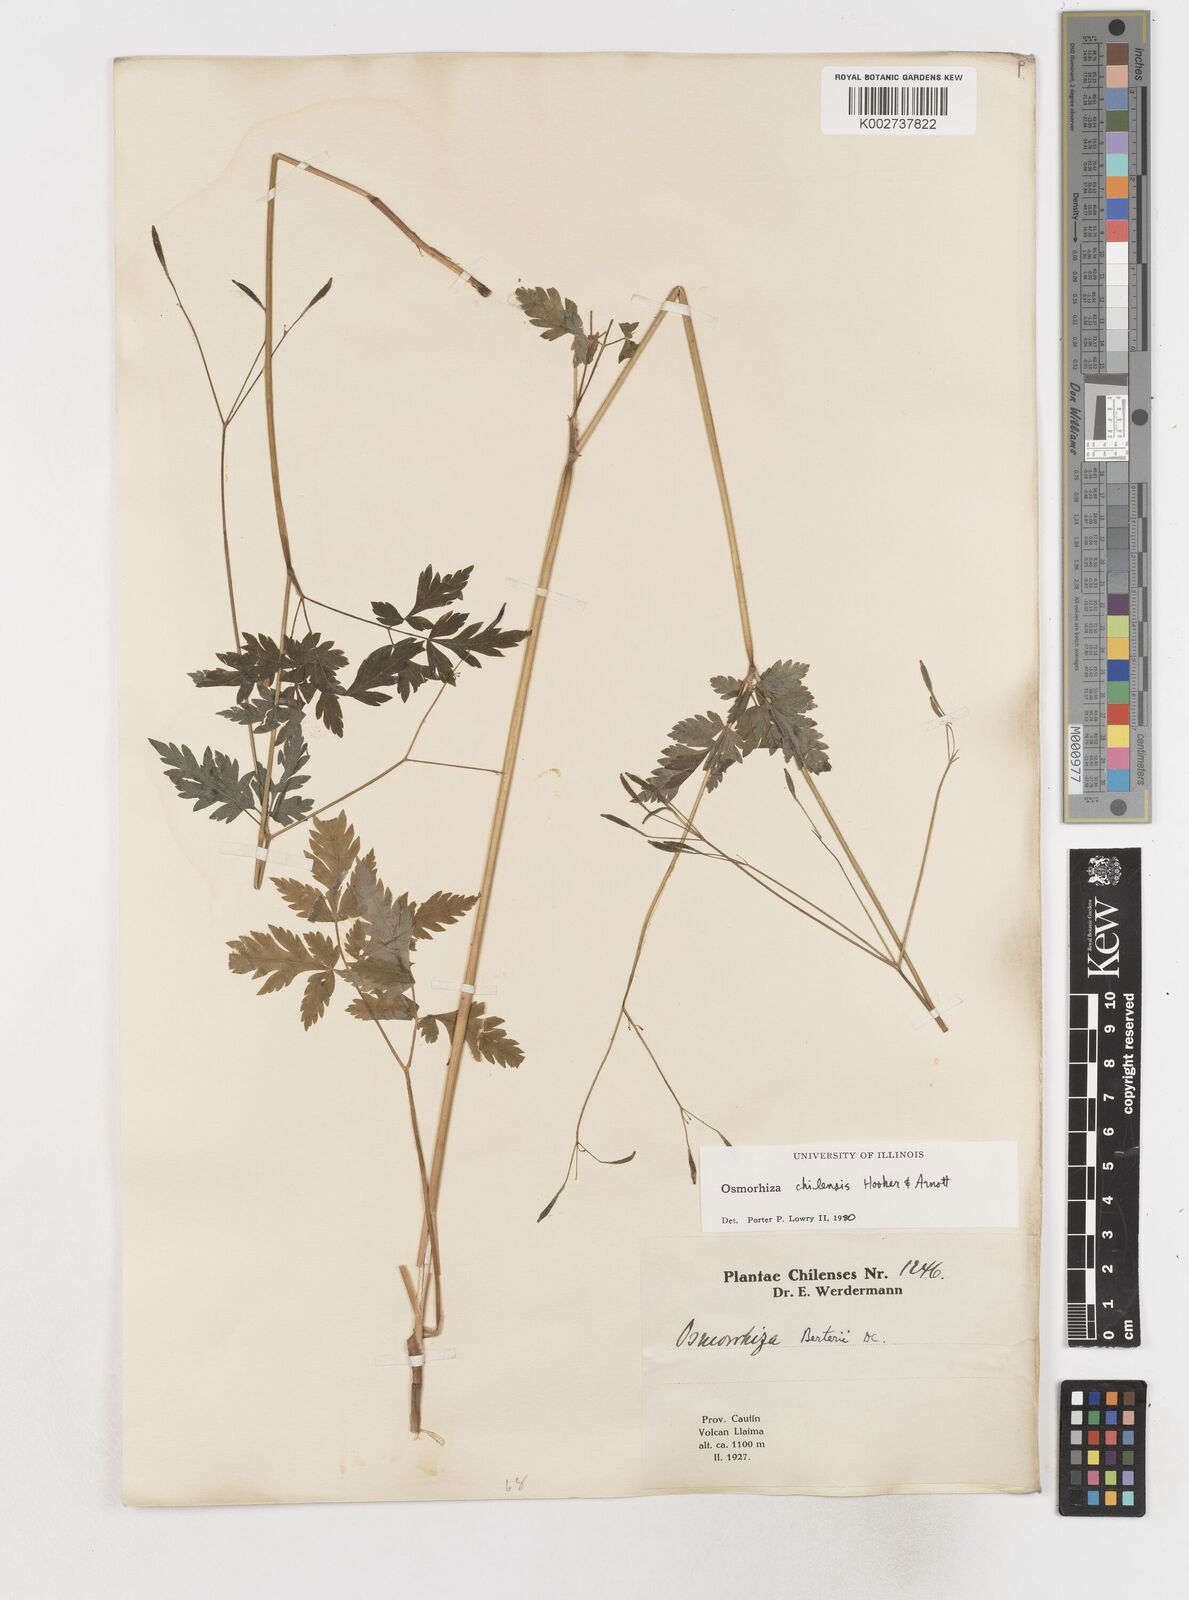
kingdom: Plantae
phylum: Tracheophyta
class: Magnoliopsida
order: Apiales
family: Apiaceae
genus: Osmorhiza
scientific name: Osmorhiza berteroi
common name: Mountain sweet cicely
